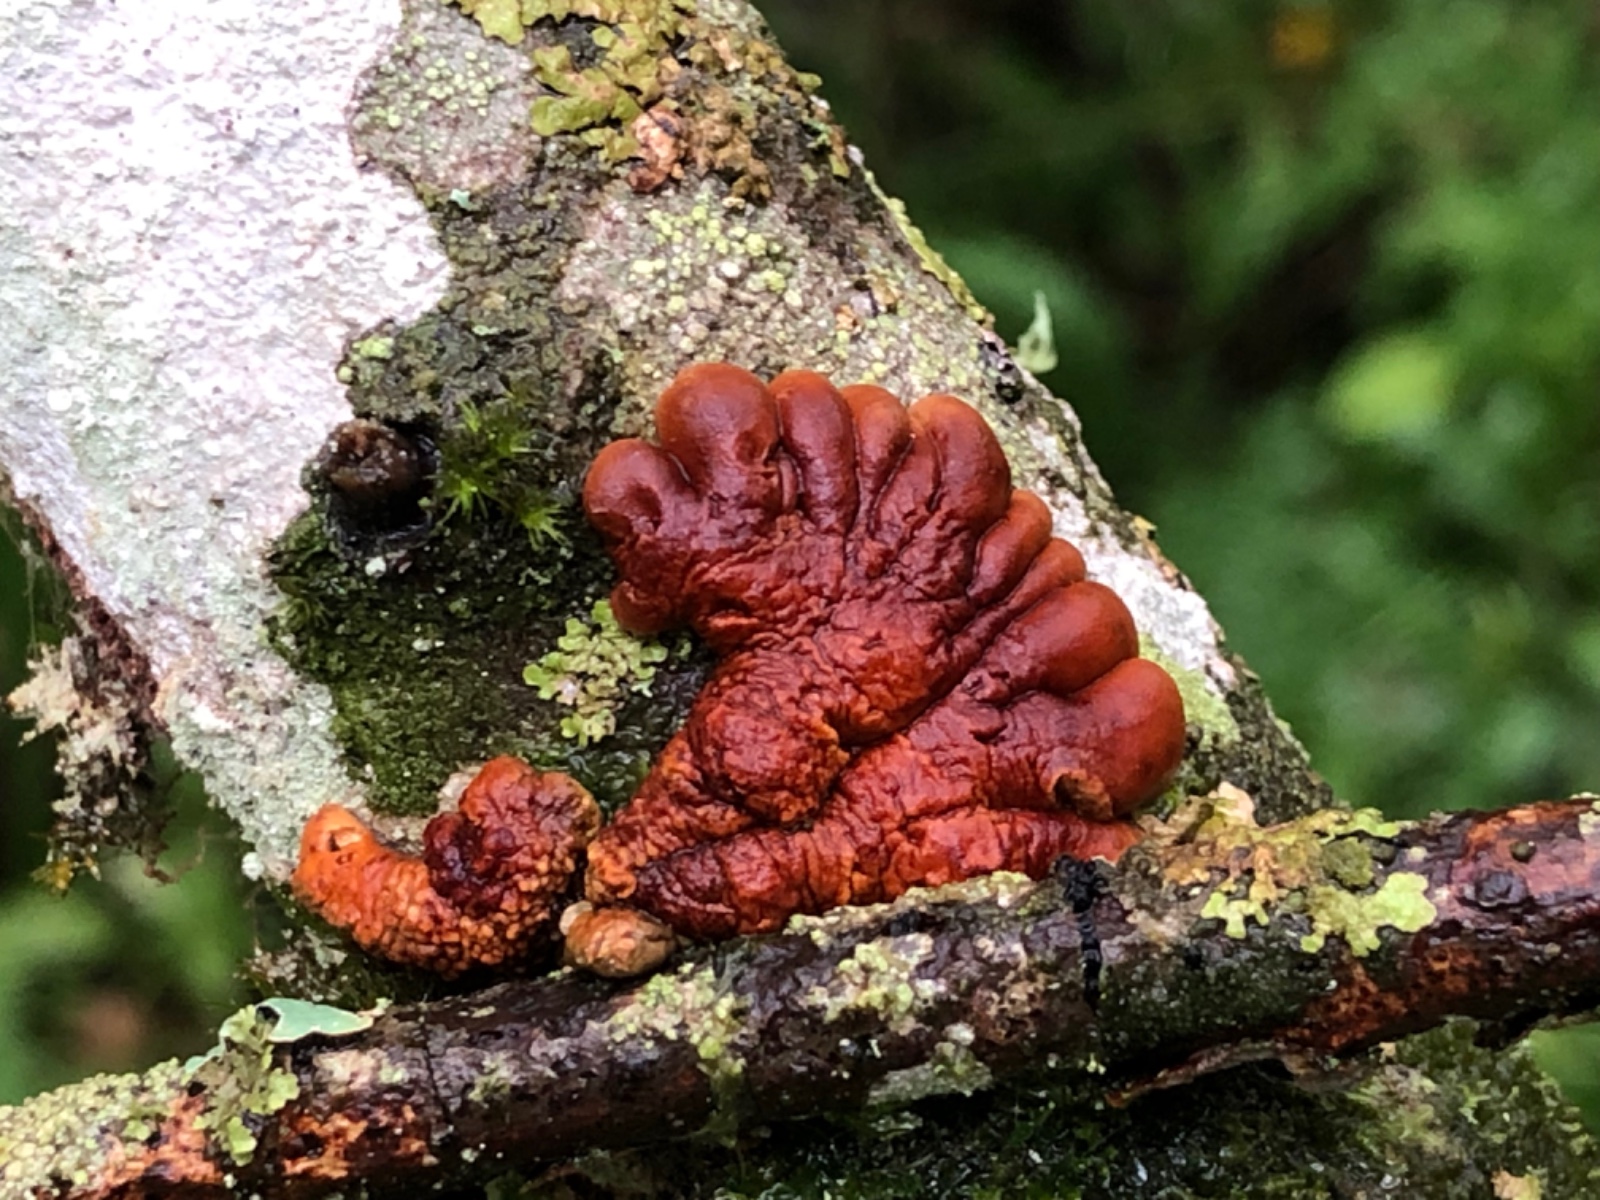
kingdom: Fungi
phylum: Ascomycota
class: Sordariomycetes
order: Hypocreales
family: Hypocreaceae
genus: Hypocreopsis
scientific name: Hypocreopsis lichenoides
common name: pilfinger
